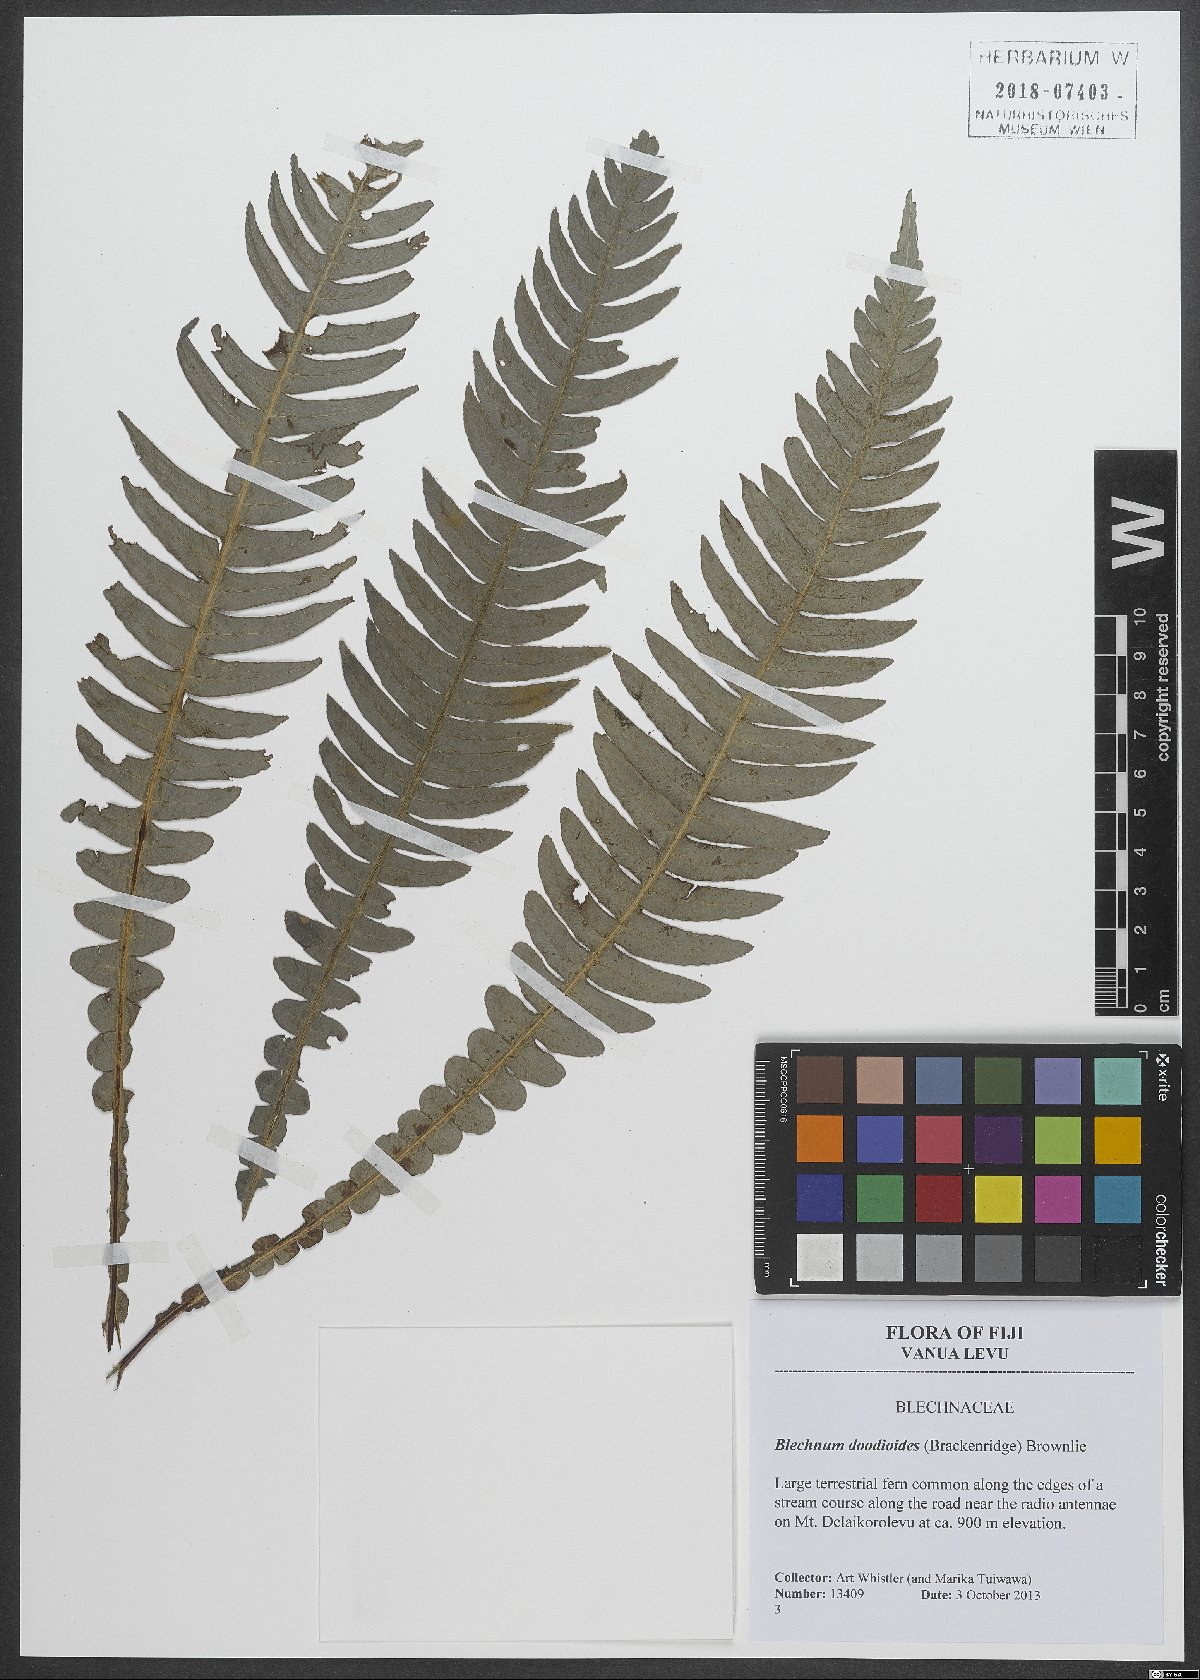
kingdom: Plantae
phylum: Tracheophyta
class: Polypodiopsida
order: Polypodiales
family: Blechnaceae
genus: Austroblechnum
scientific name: Austroblechnum lanceolatum
